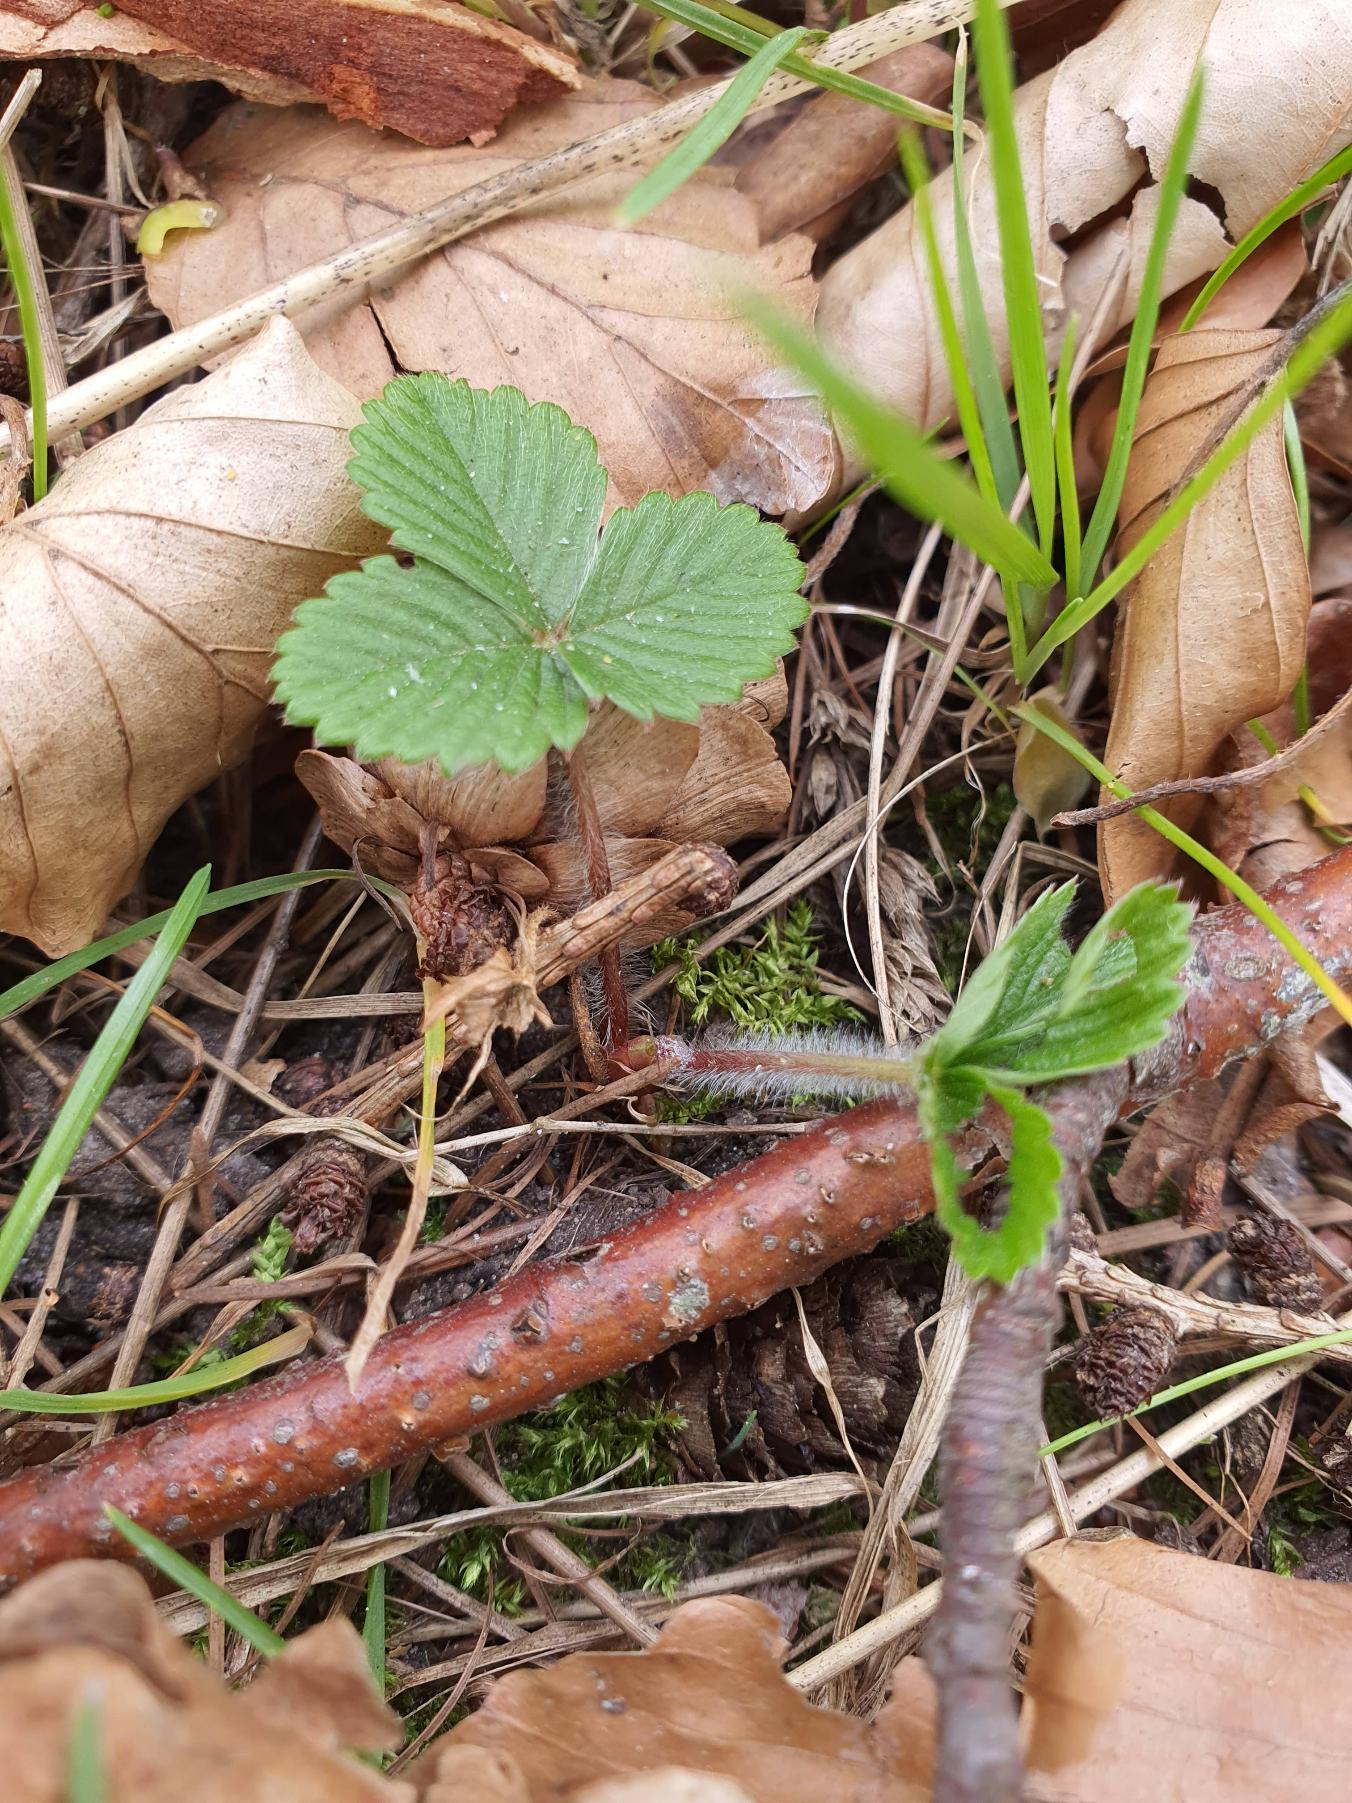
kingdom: Plantae
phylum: Tracheophyta
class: Magnoliopsida
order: Rosales
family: Rosaceae
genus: Fragaria
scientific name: Fragaria vesca
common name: Skov-jordbær
